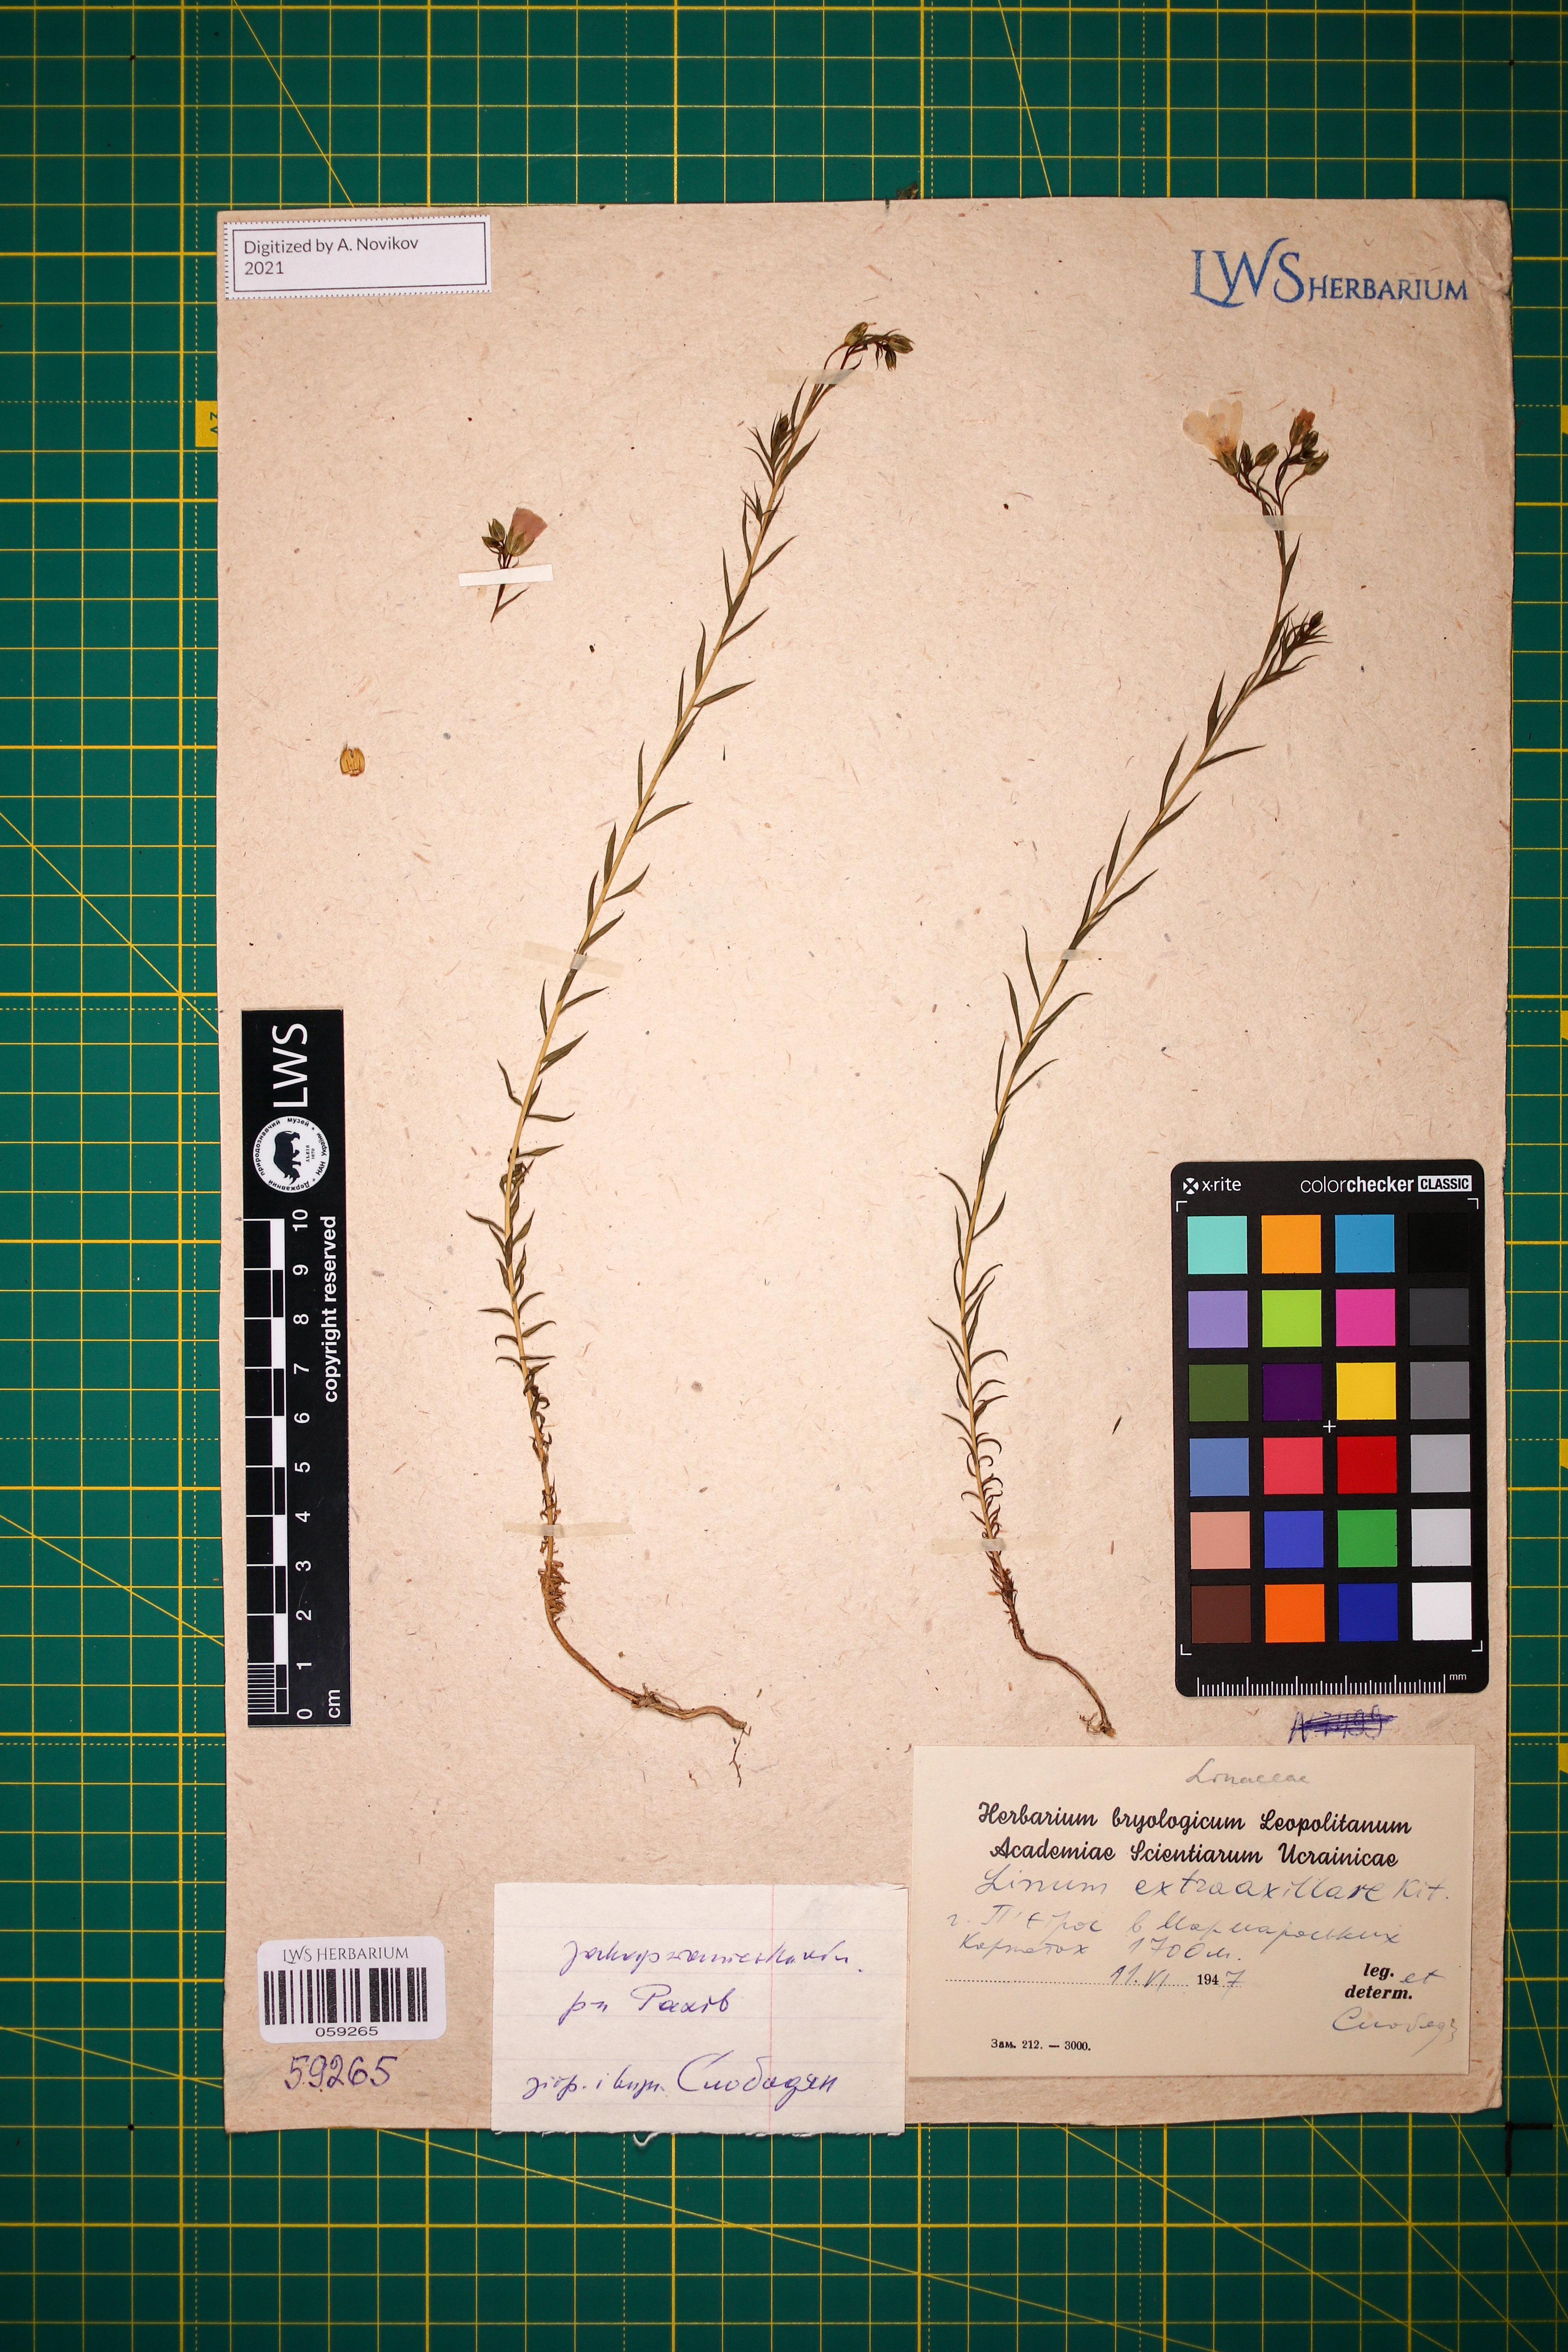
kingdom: Plantae
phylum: Tracheophyta
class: Magnoliopsida
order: Malpighiales
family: Linaceae
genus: Linum
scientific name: Linum perenne
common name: Blue flax
